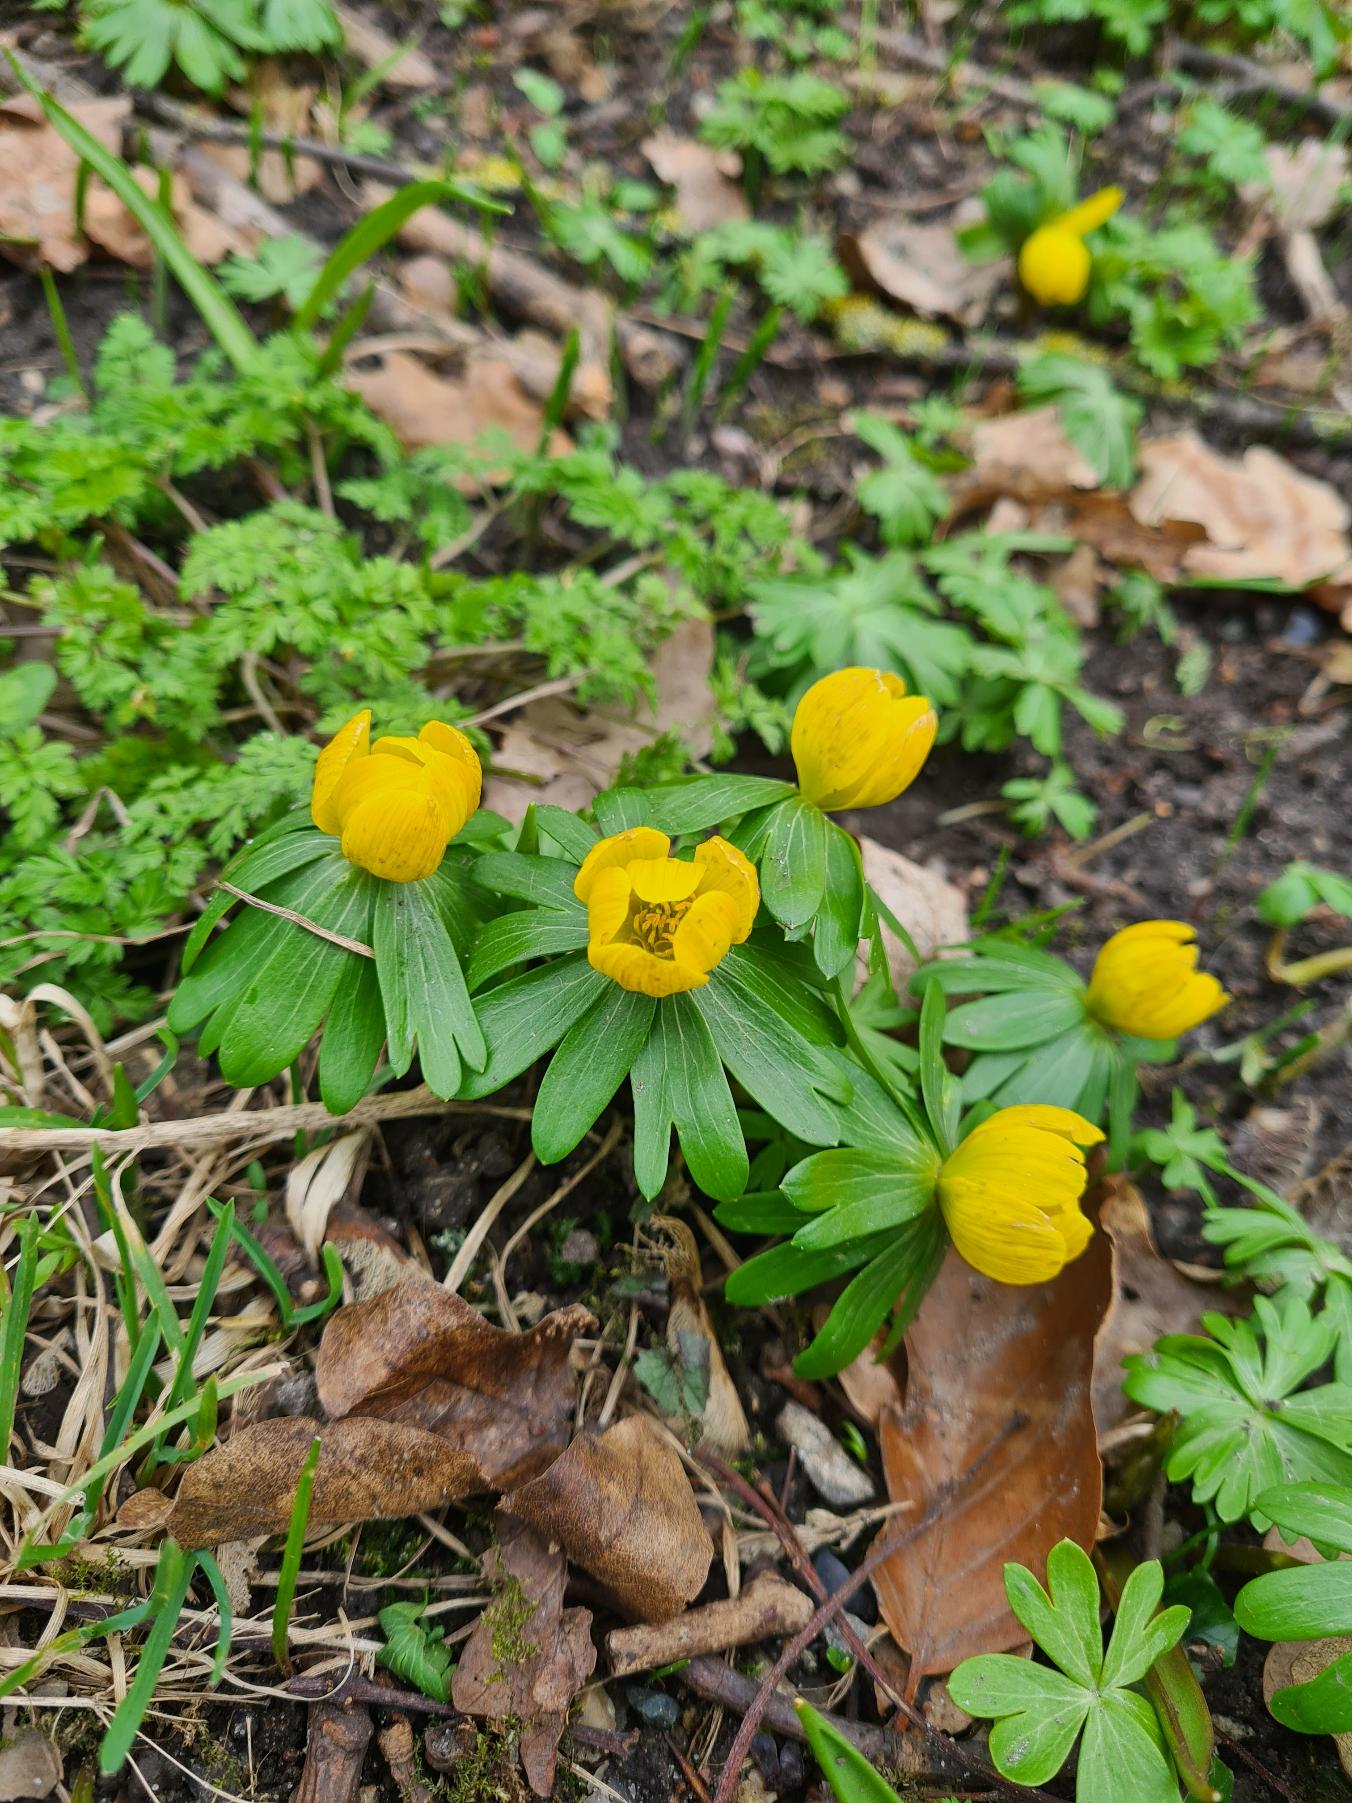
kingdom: Plantae
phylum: Tracheophyta
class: Magnoliopsida
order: Ranunculales
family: Ranunculaceae
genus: Eranthis
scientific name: Eranthis hyemalis
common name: Erantis
